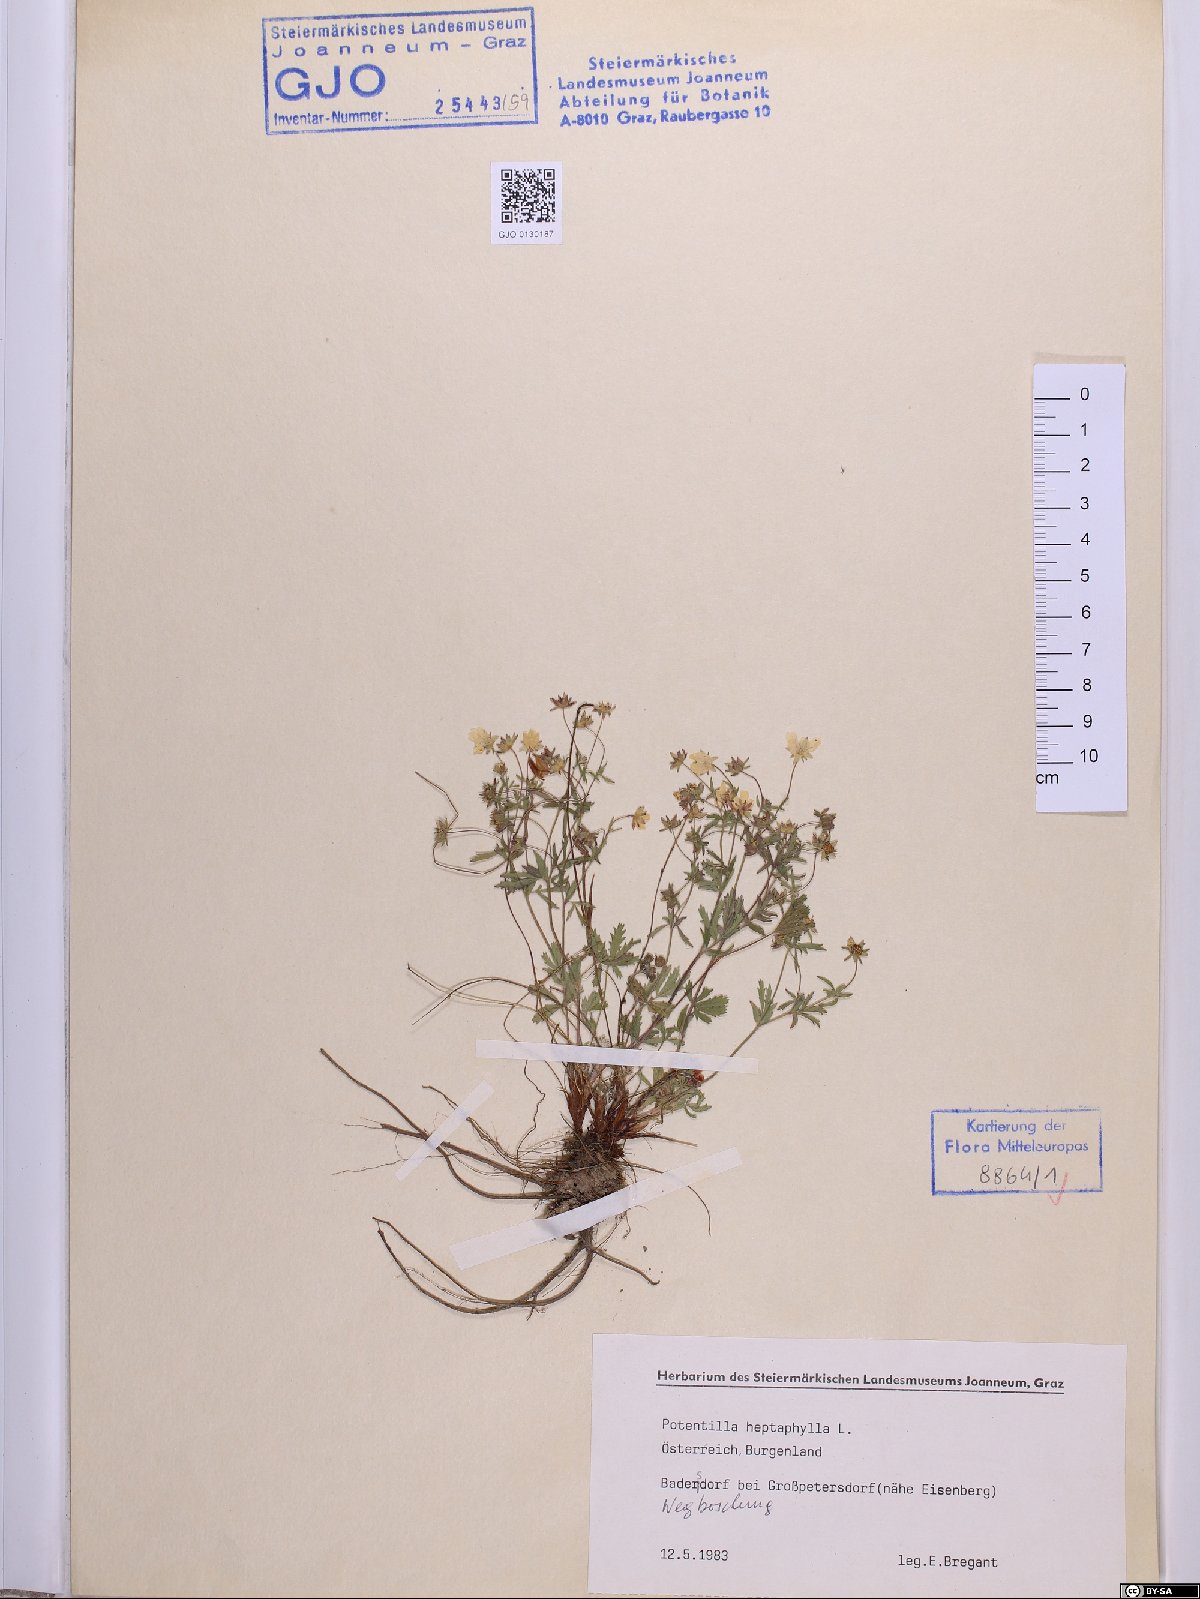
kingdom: Plantae
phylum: Tracheophyta
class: Magnoliopsida
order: Rosales
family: Rosaceae
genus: Potentilla
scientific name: Potentilla heptaphylla
